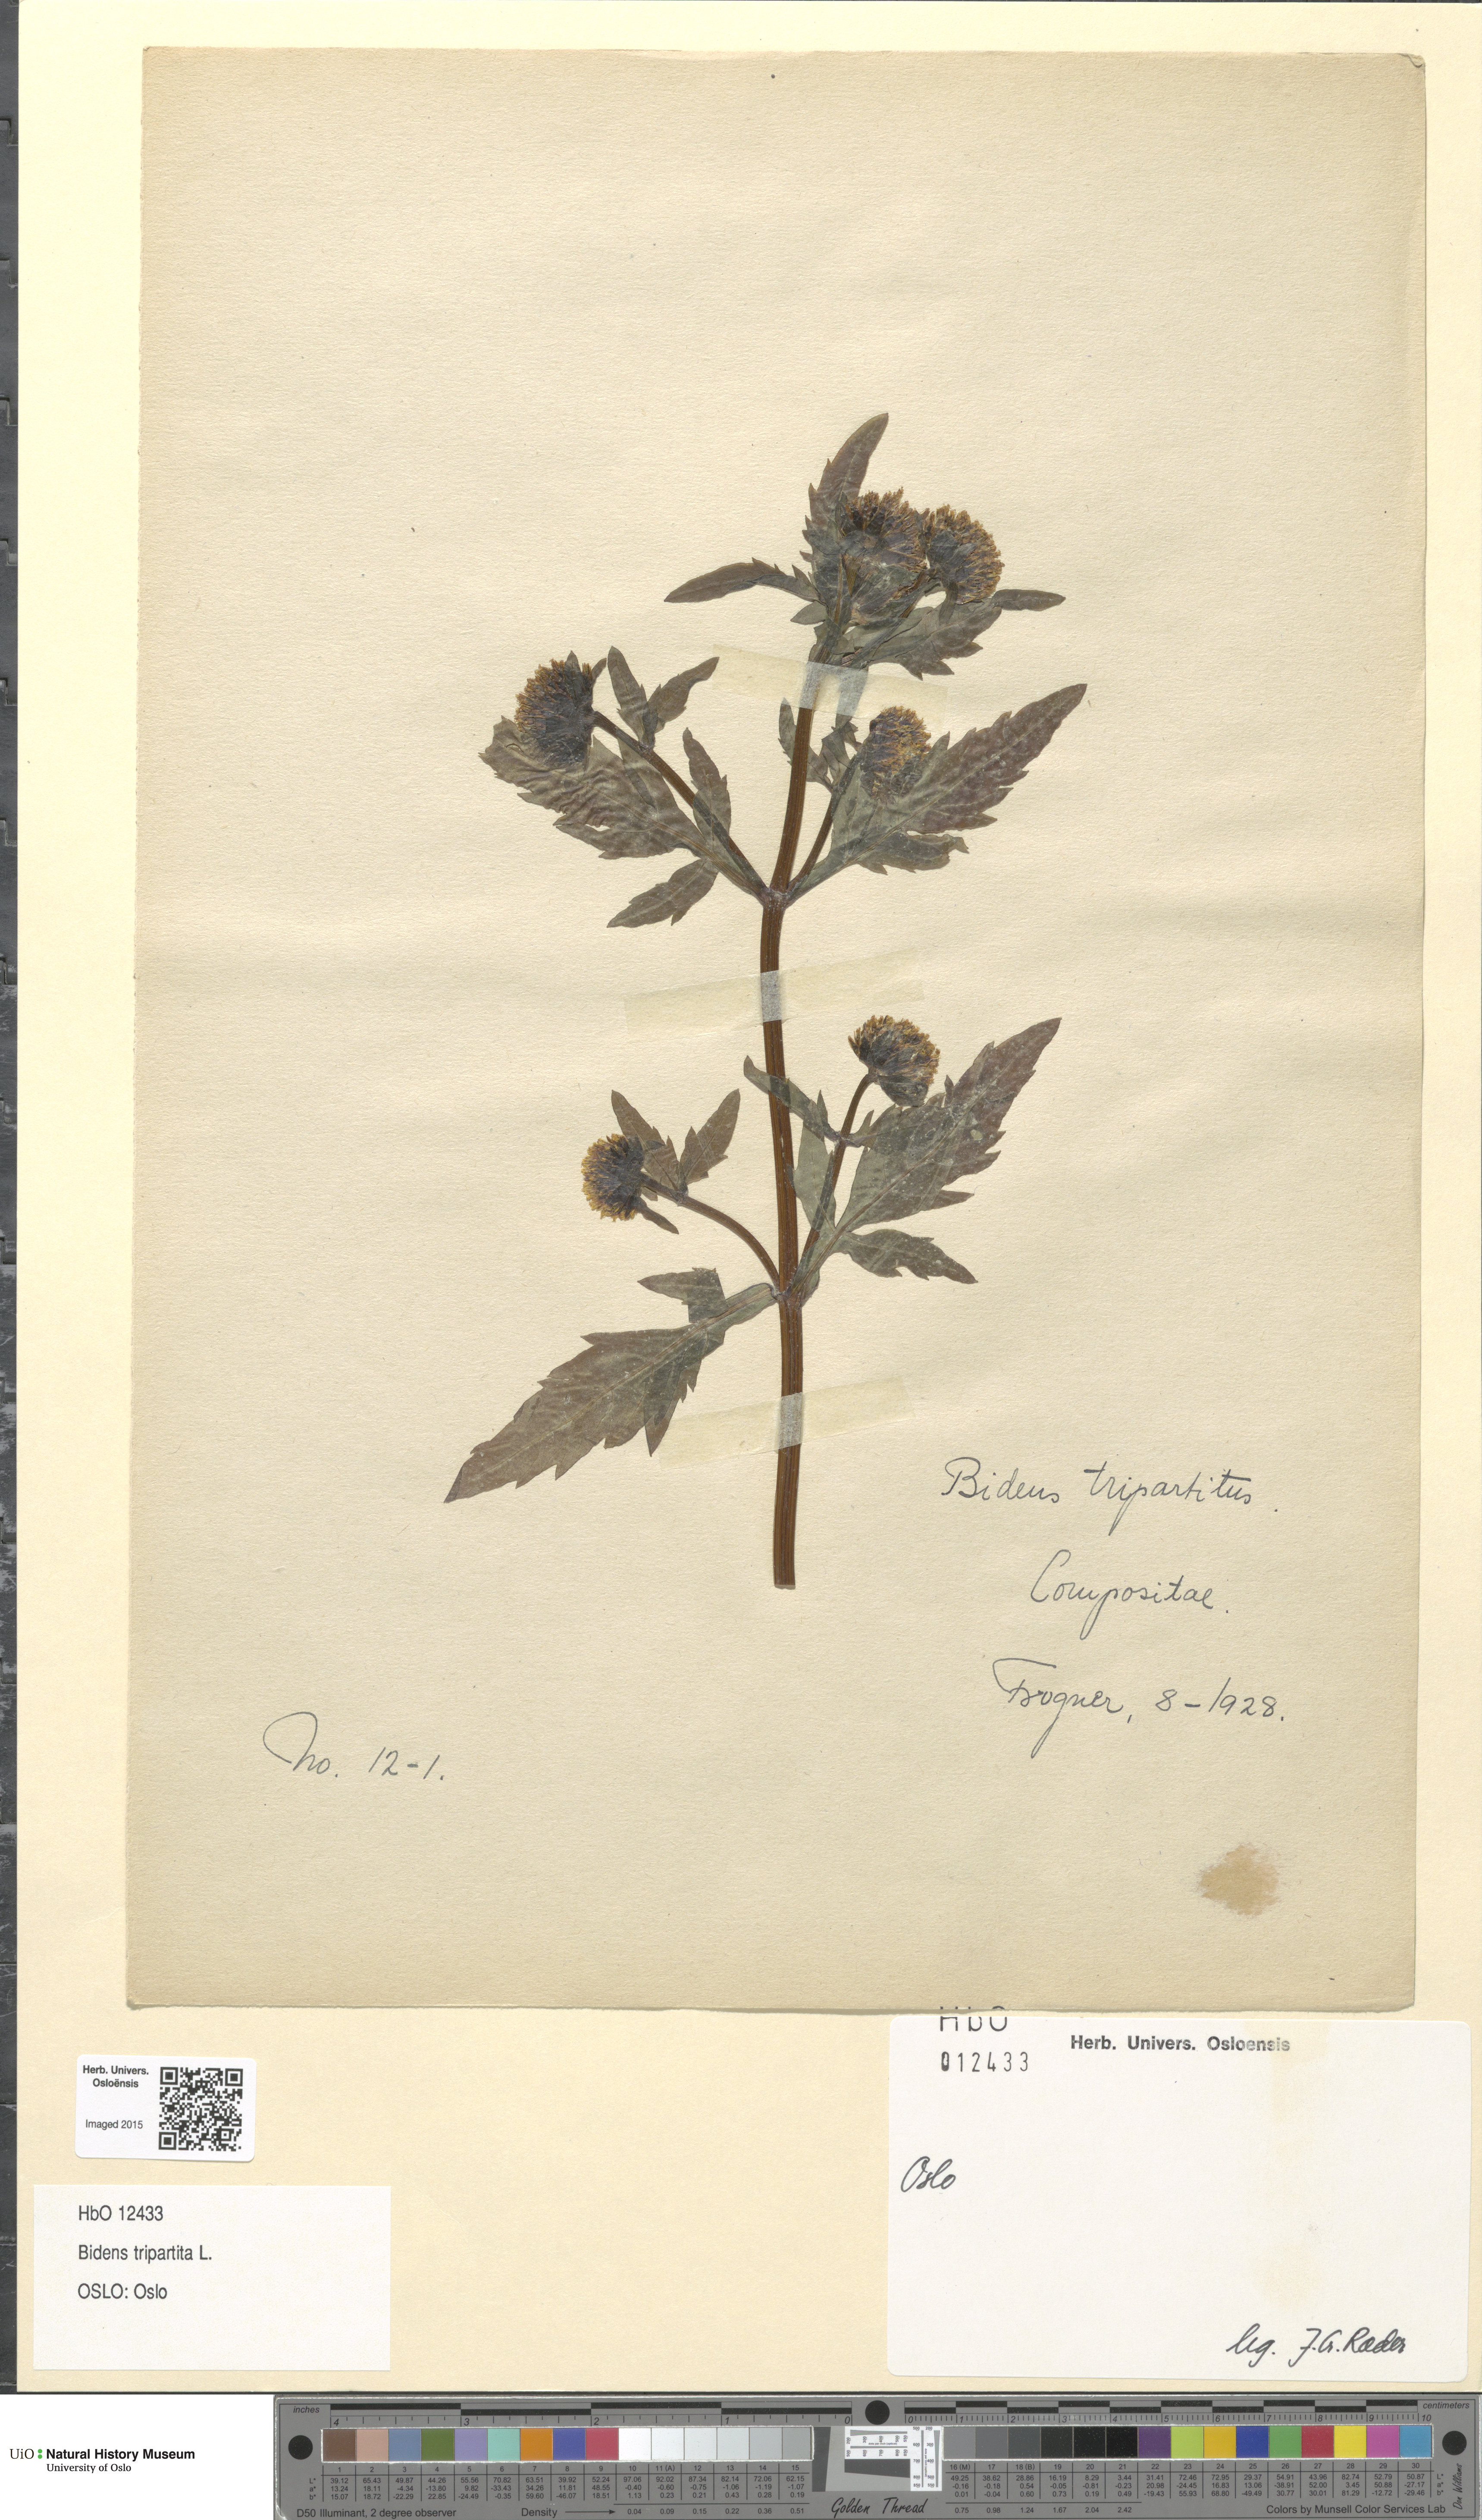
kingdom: Plantae
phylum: Tracheophyta
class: Magnoliopsida
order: Asterales
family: Asteraceae
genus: Bidens
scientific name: Bidens tripartita
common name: Trifid bur-marigold
